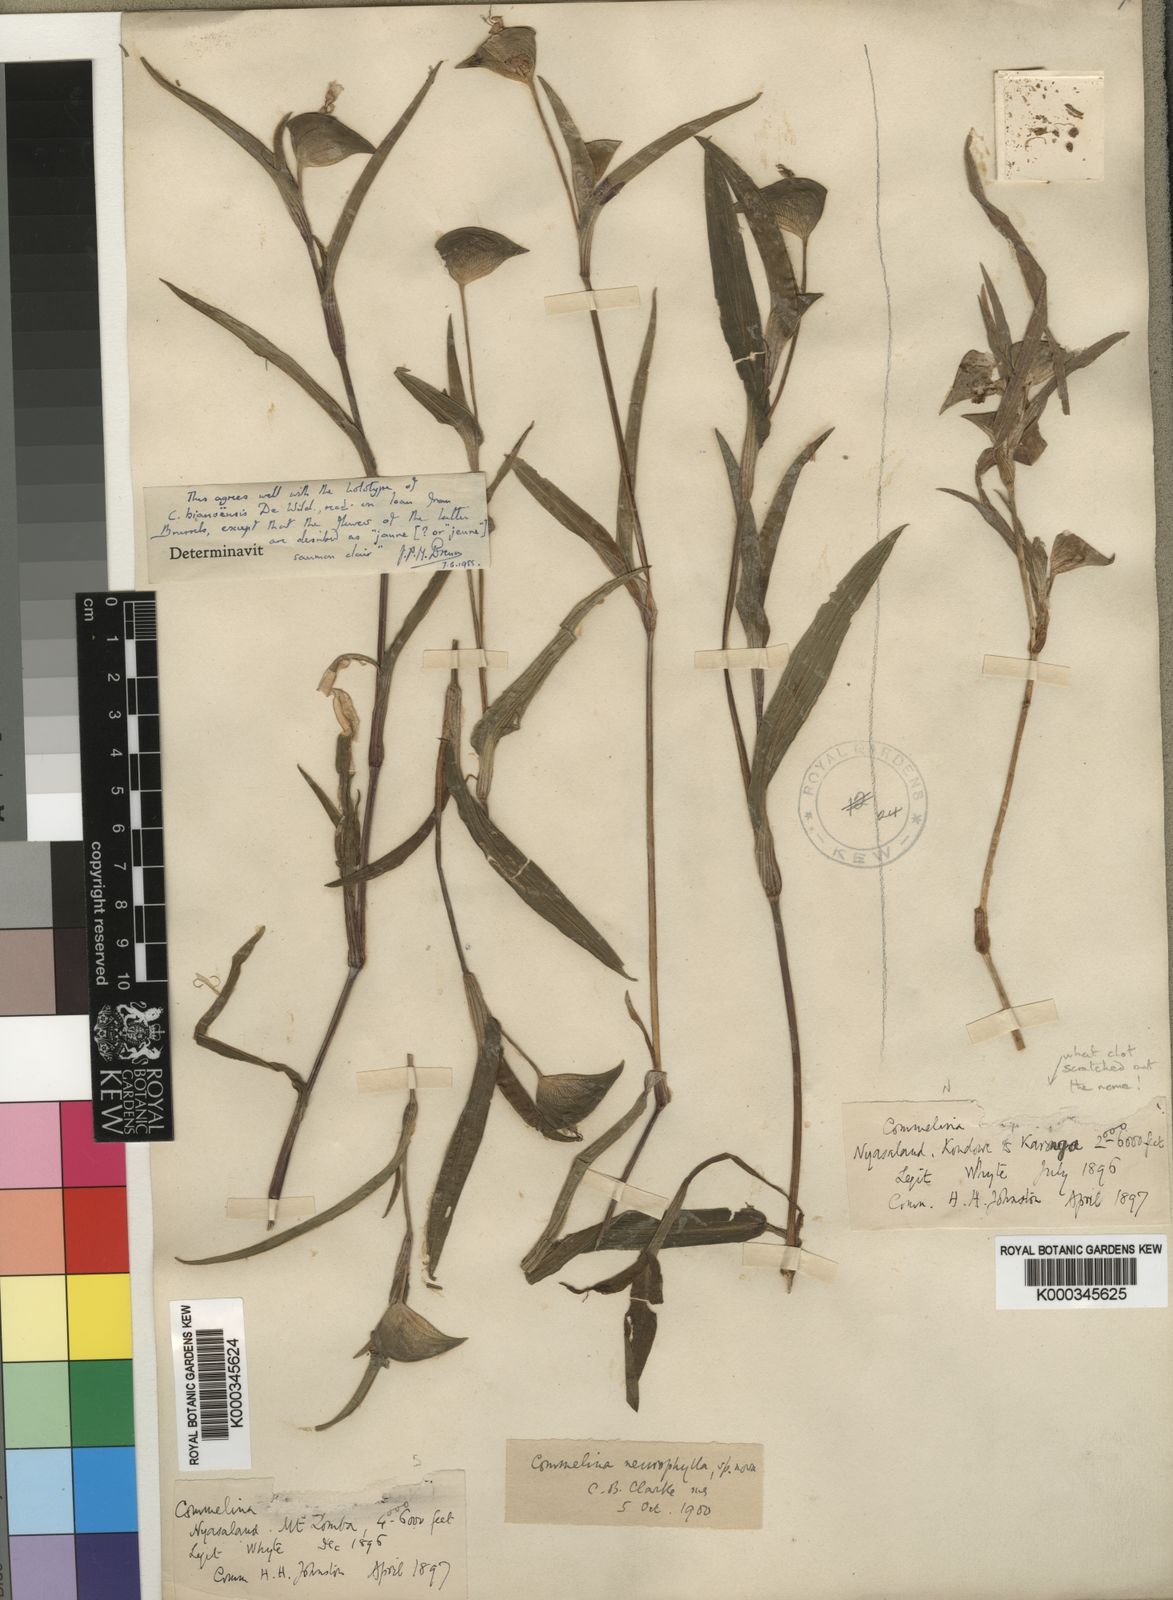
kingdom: Plantae
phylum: Tracheophyta
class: Liliopsida
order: Commelinales
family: Commelinaceae
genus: Commelina
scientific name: Commelina neurophylla
